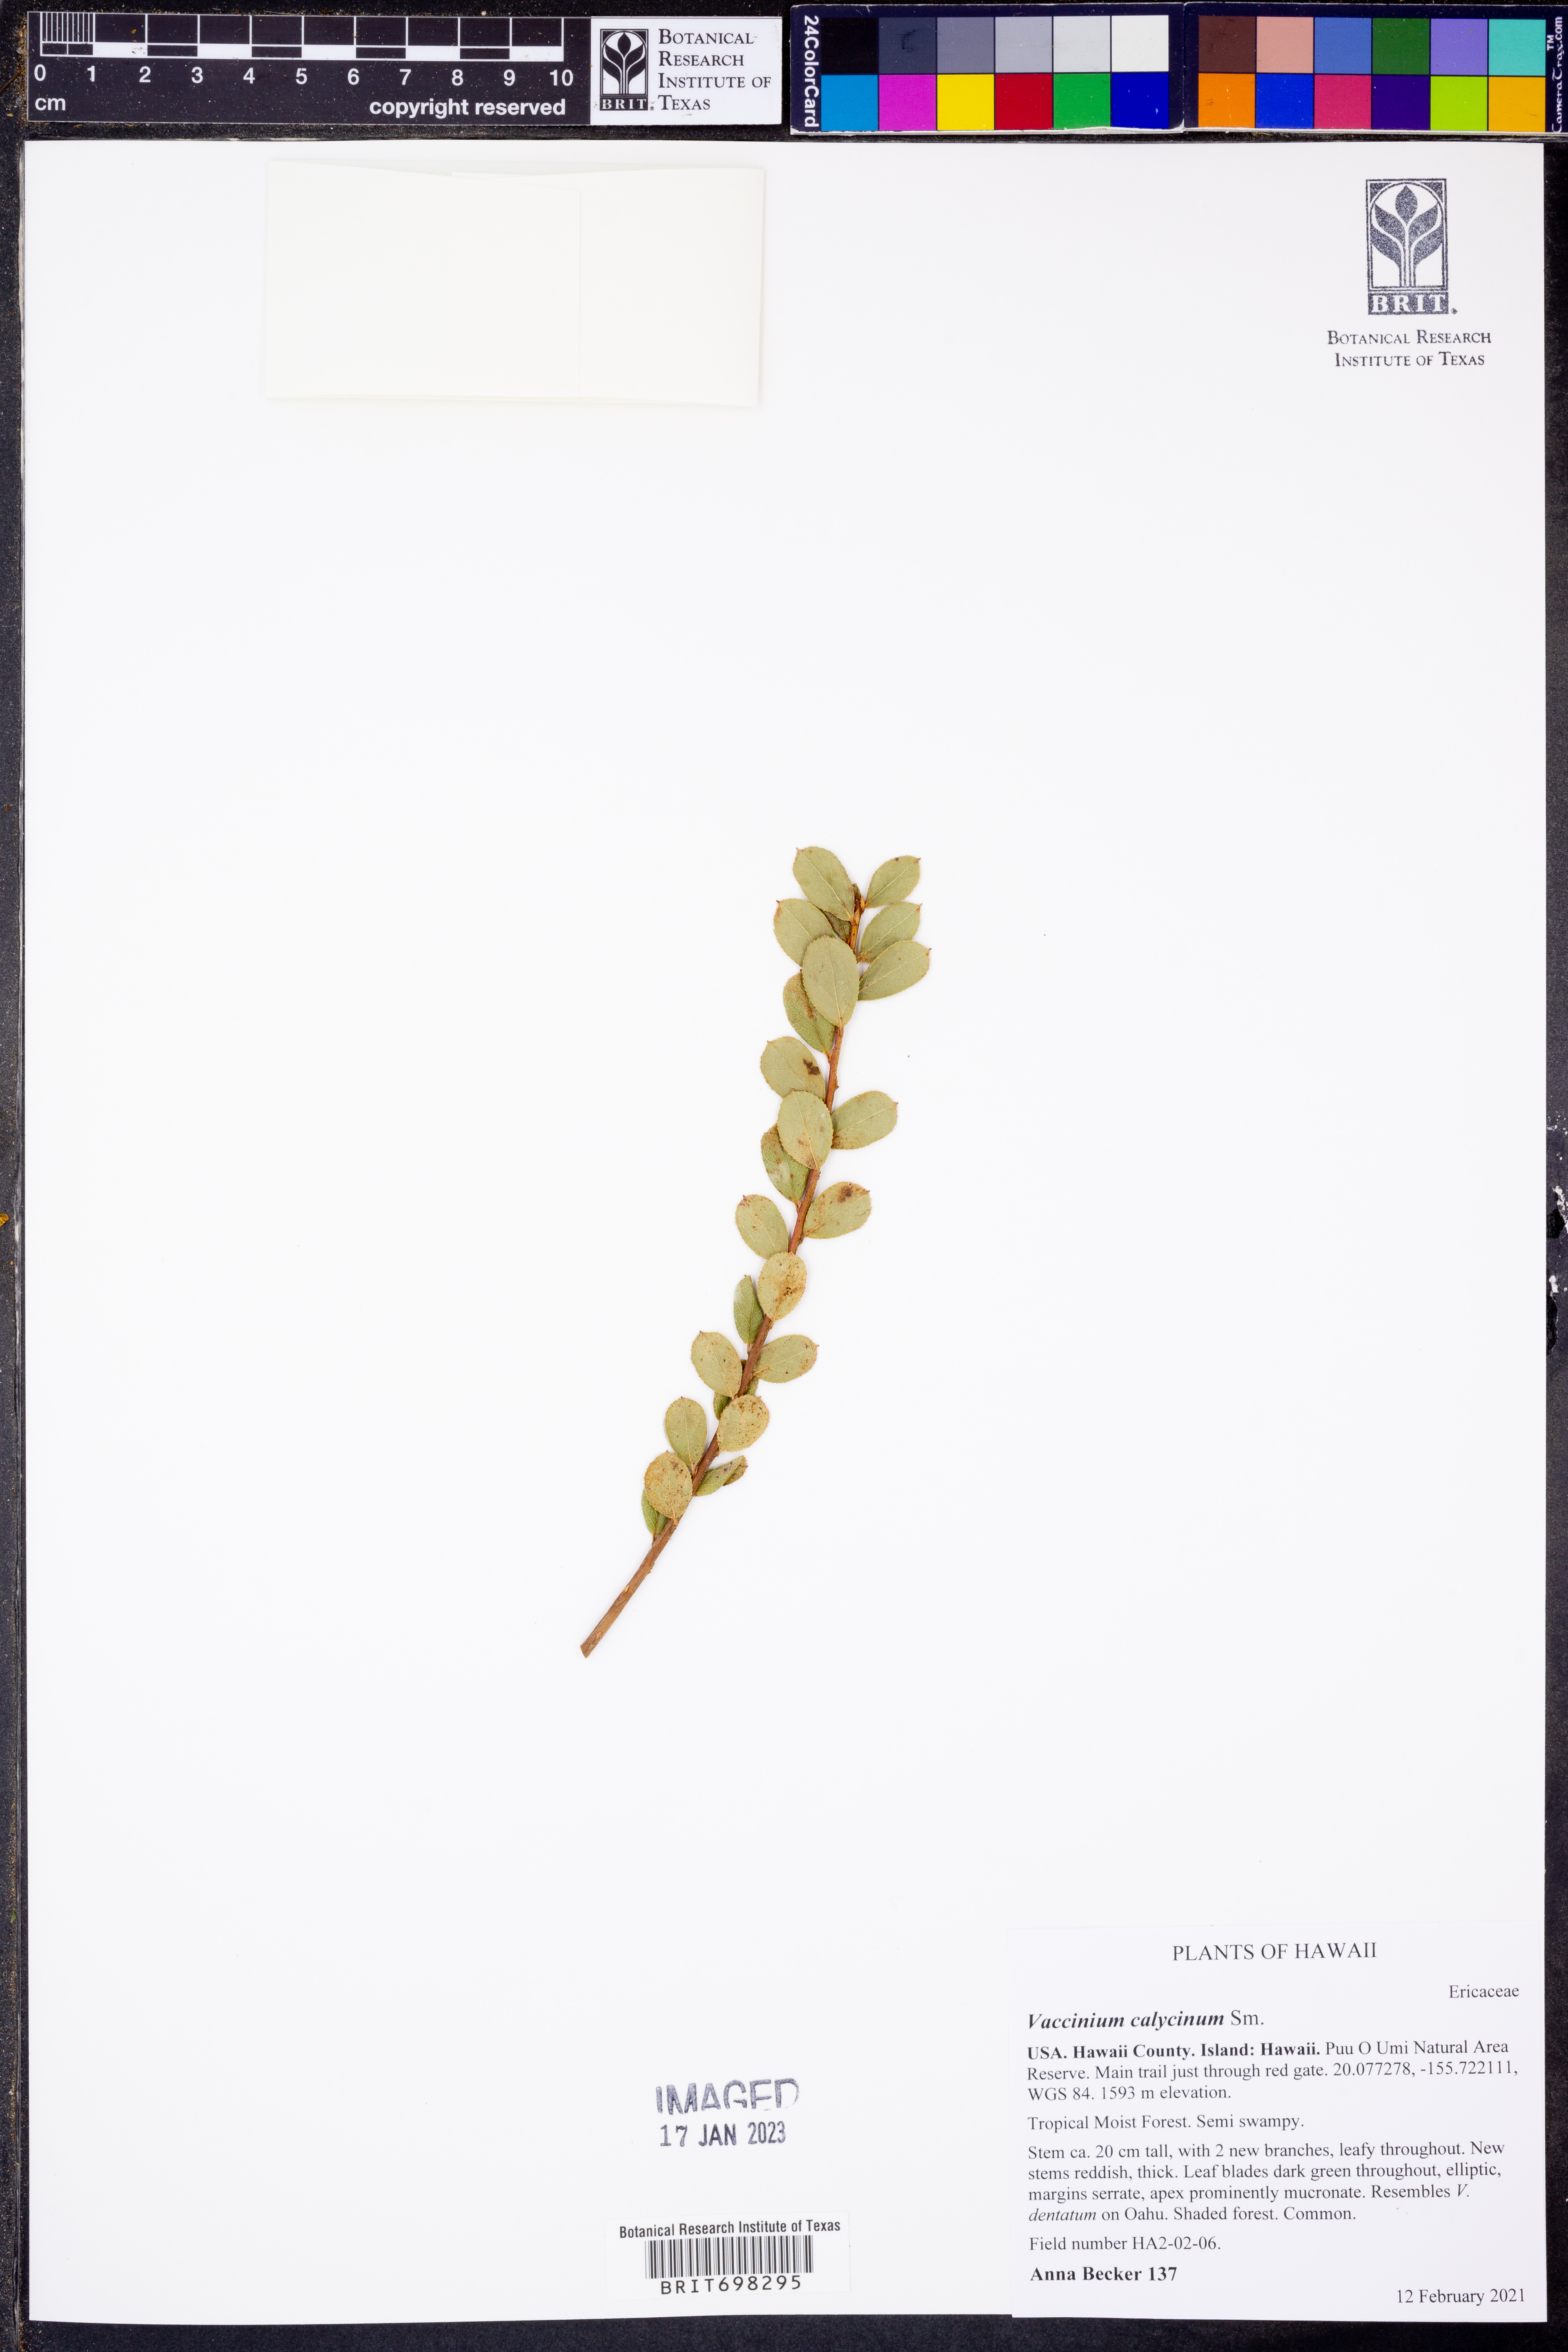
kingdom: Plantae
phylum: Tracheophyta
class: Magnoliopsida
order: Ericales
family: Ericaceae
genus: Vaccinium
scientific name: Vaccinium calycinum
